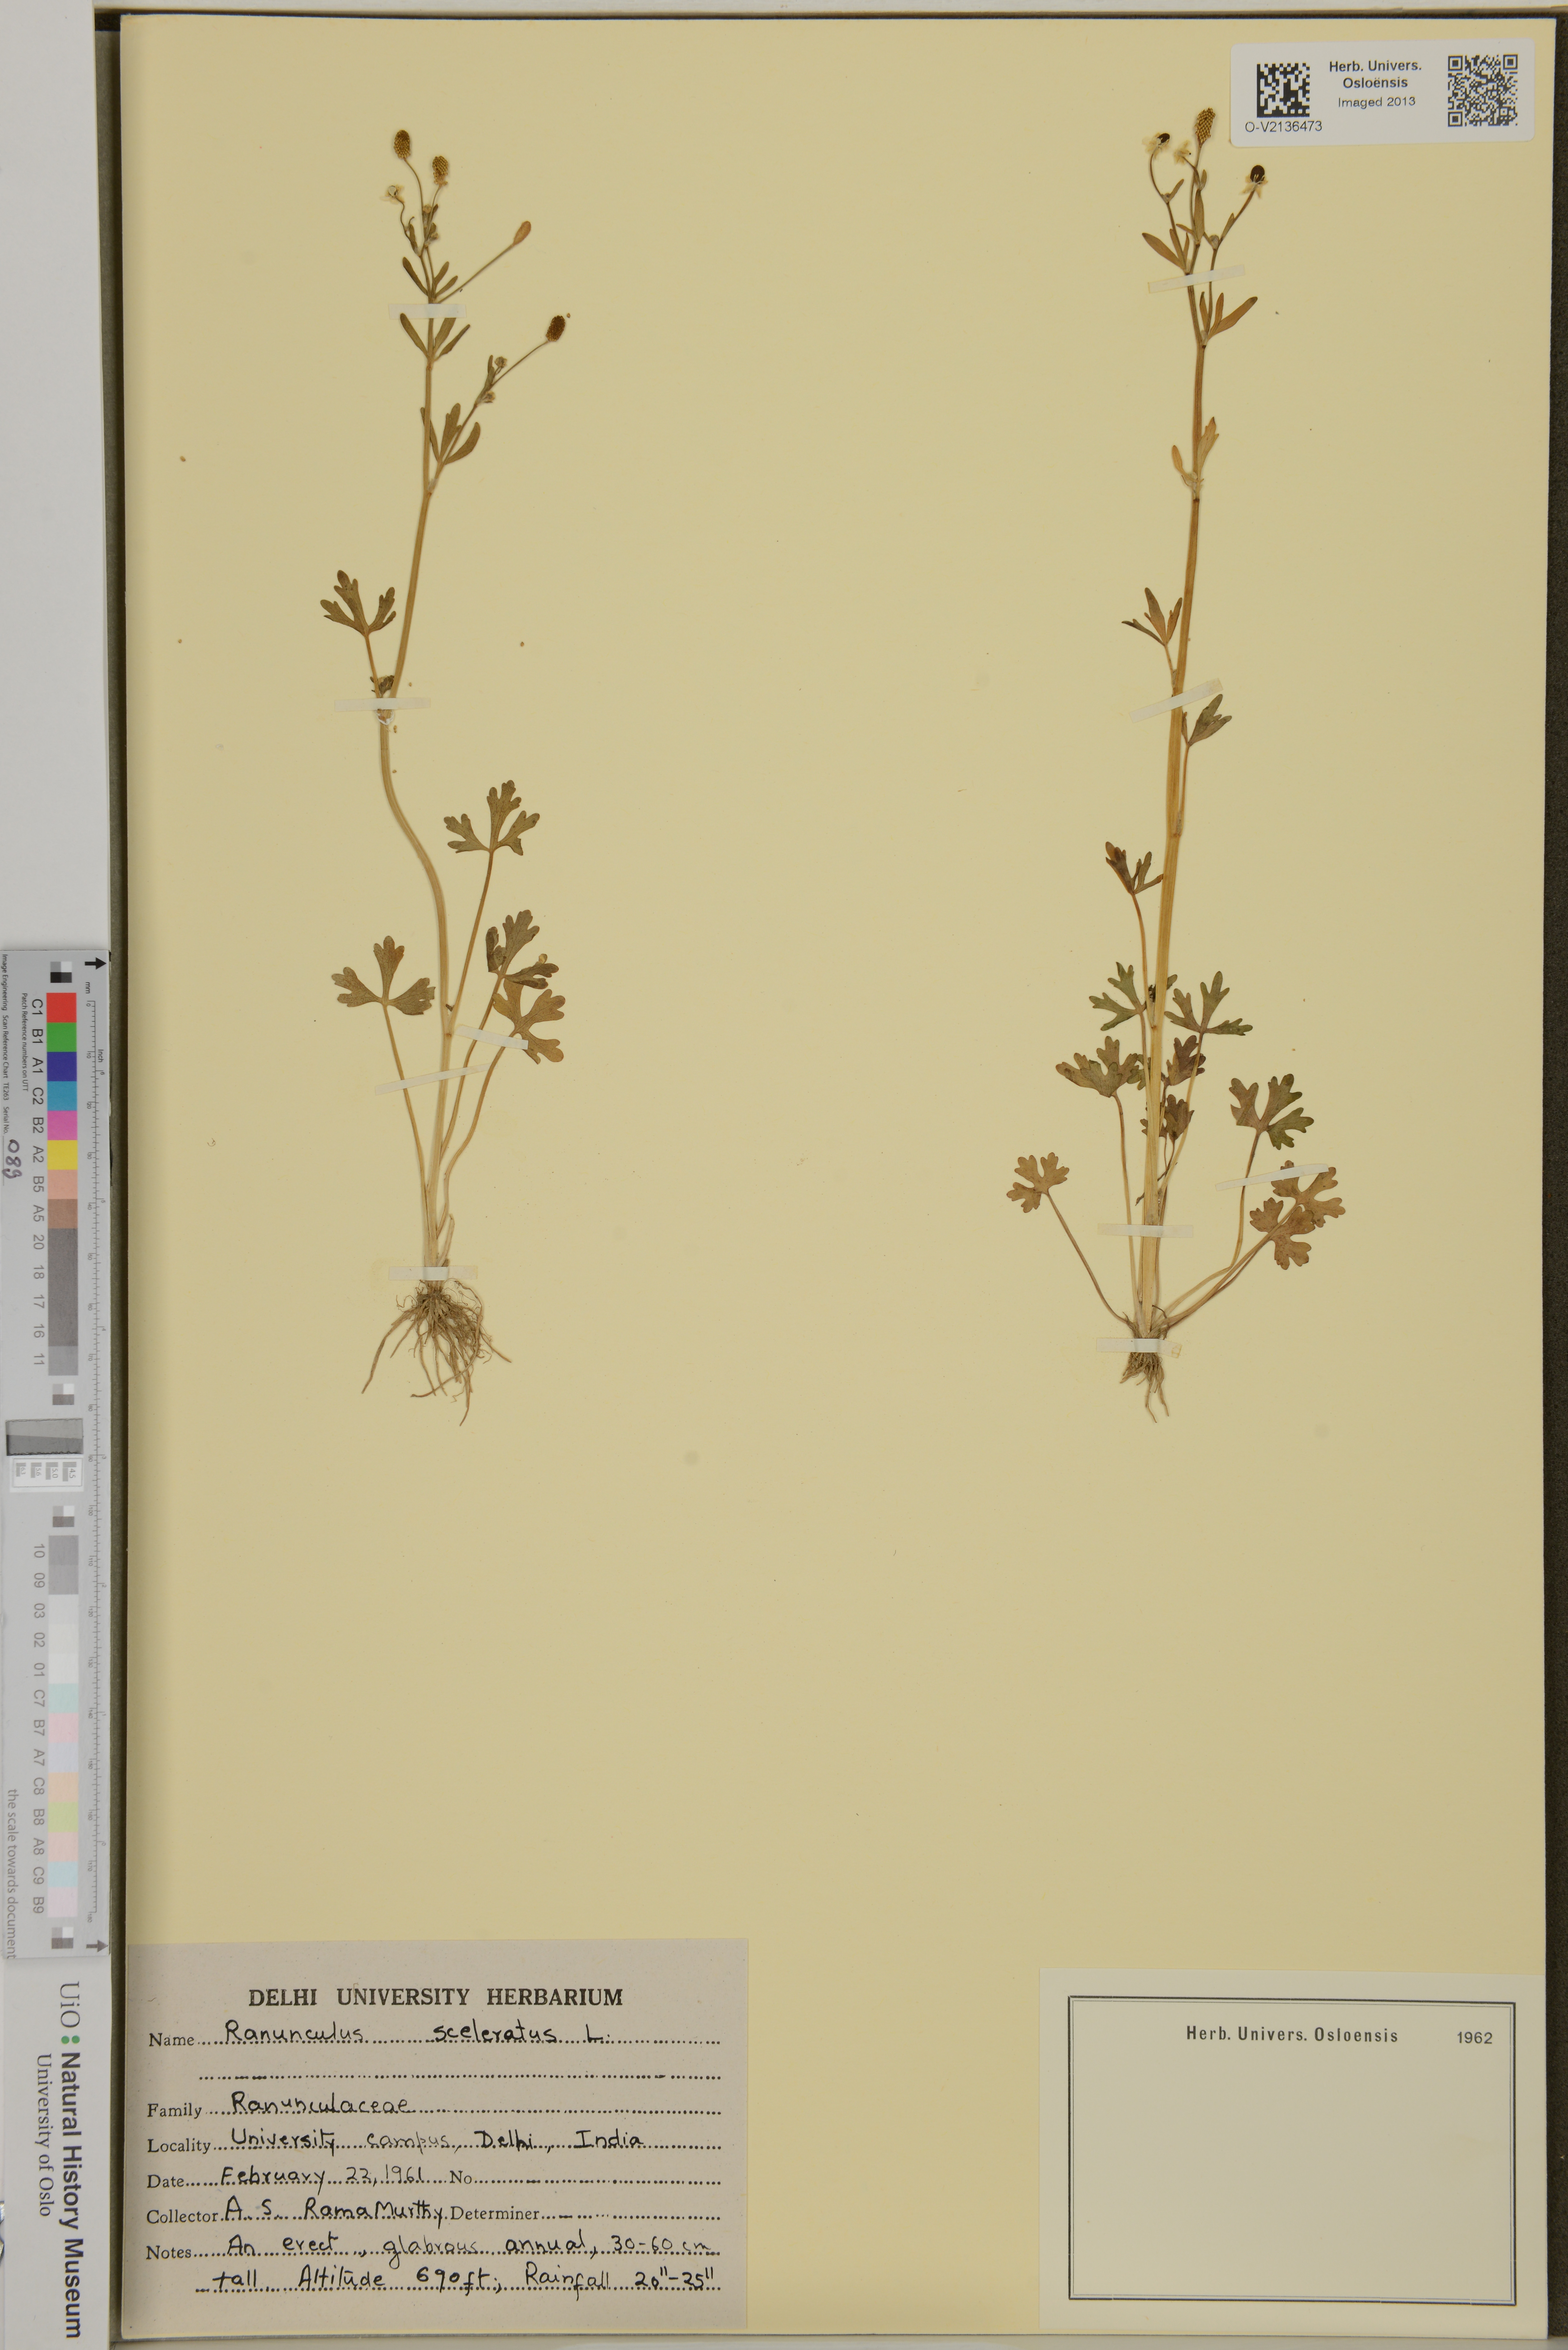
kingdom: Plantae
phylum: Tracheophyta
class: Magnoliopsida
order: Ranunculales
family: Ranunculaceae
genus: Ranunculus
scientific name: Ranunculus sceleratus
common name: Celery-leaved buttercup
